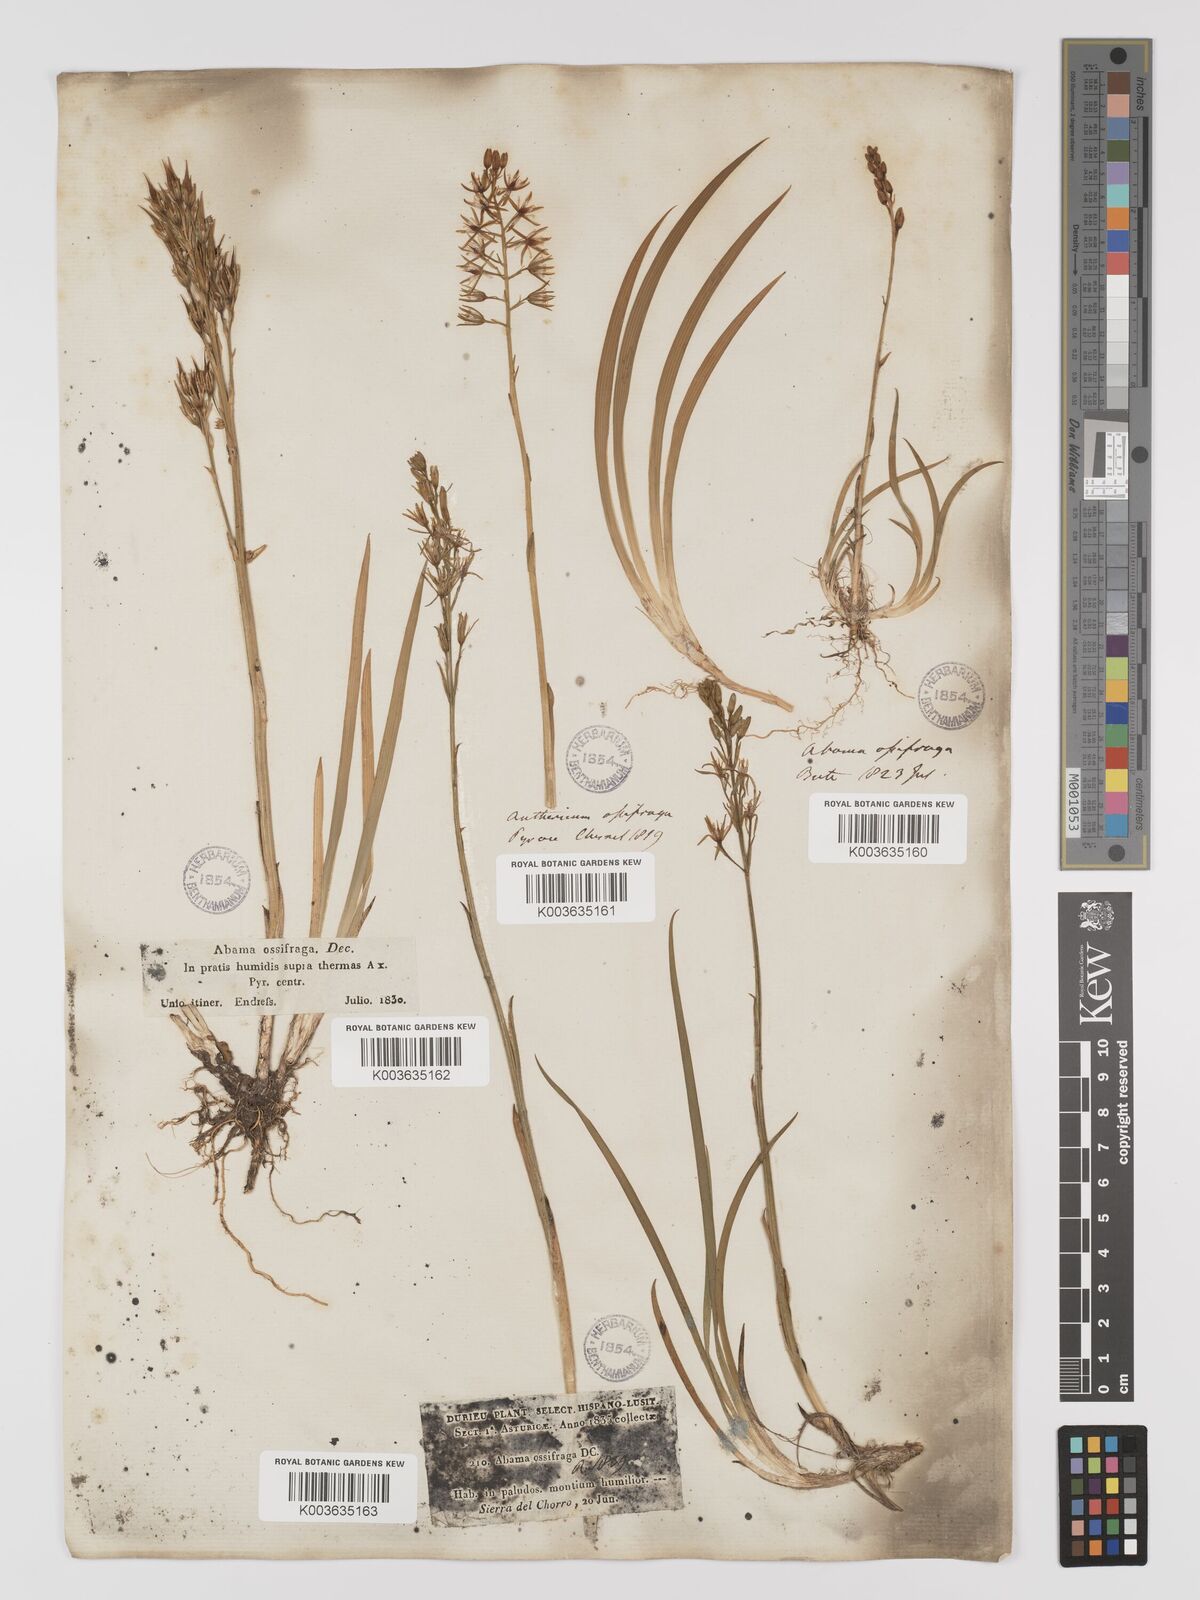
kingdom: Plantae
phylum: Tracheophyta
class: Liliopsida
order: Dioscoreales
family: Nartheciaceae
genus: Narthecium
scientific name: Narthecium ossifragum
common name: Bog asphodel
